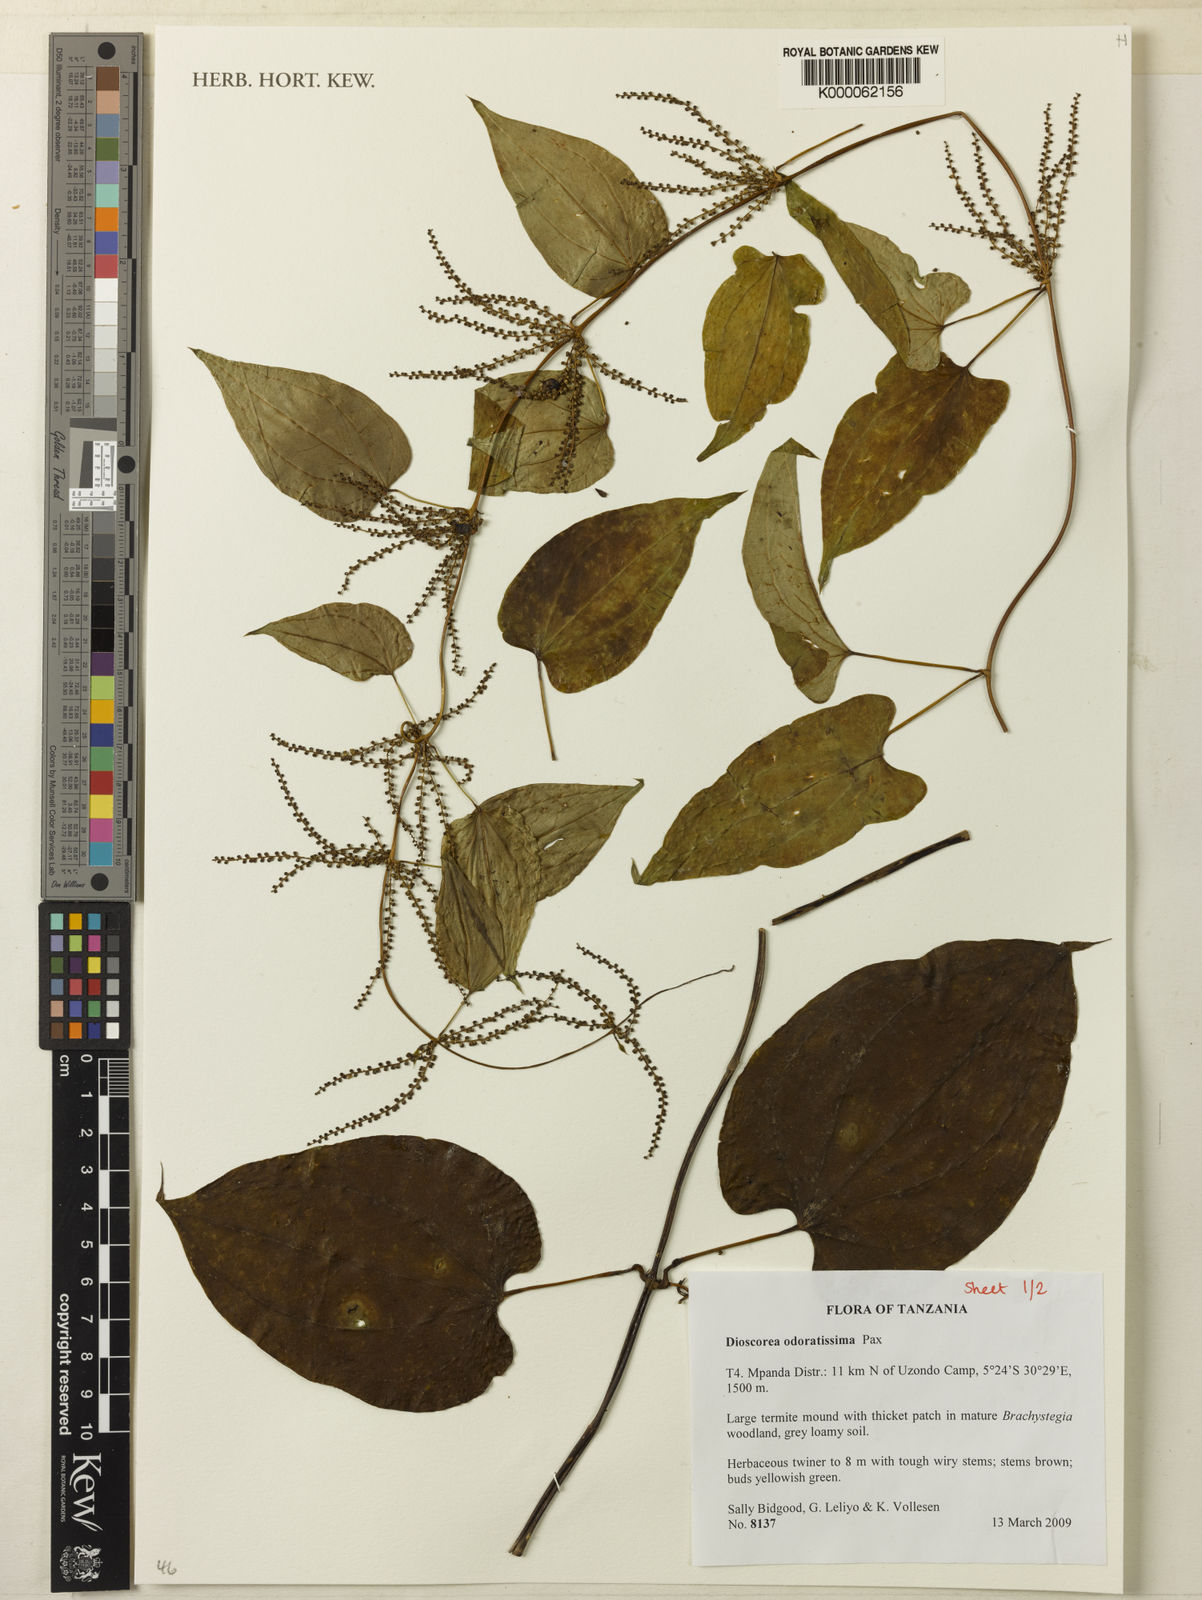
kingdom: Plantae
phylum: Tracheophyta
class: Liliopsida
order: Dioscoreales
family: Dioscoreaceae
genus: Dioscorea
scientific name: Dioscorea praehensilis
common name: Bush yam
